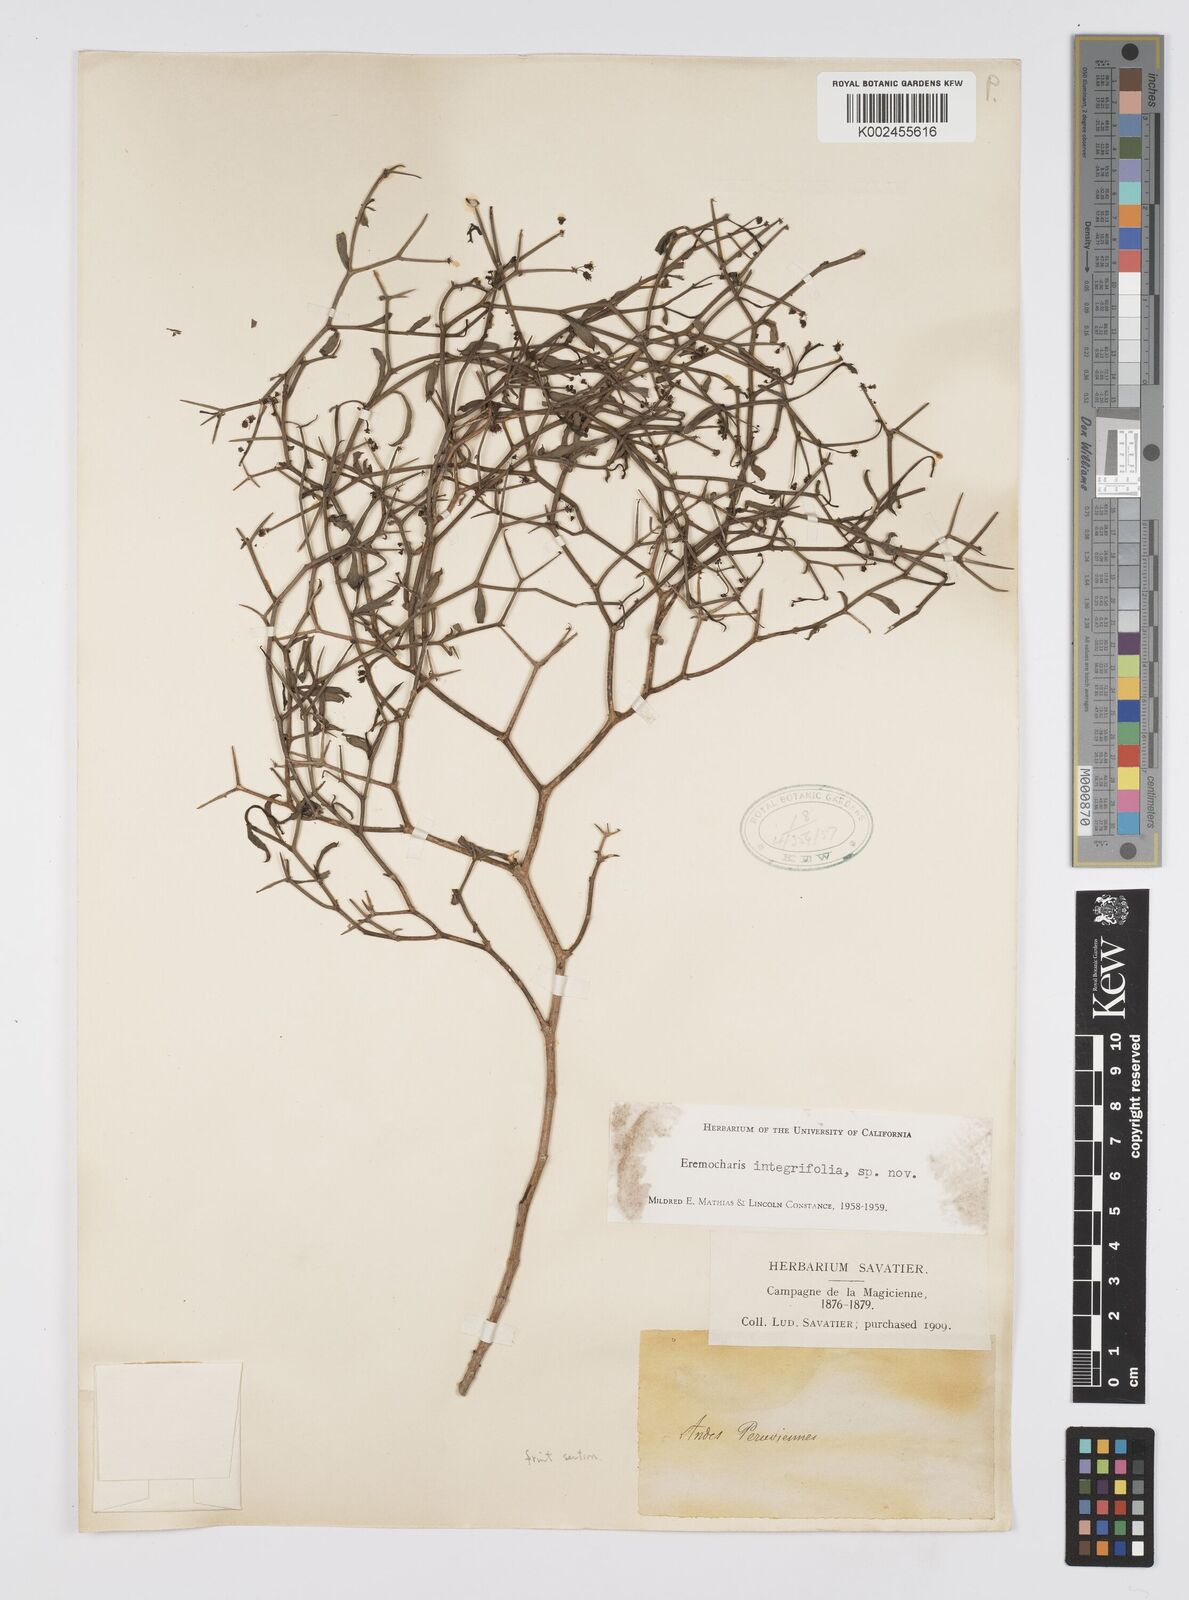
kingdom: Plantae
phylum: Tracheophyta
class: Magnoliopsida
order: Apiales
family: Apiaceae
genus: Eremocharis
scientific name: Eremocharis integrifolia
